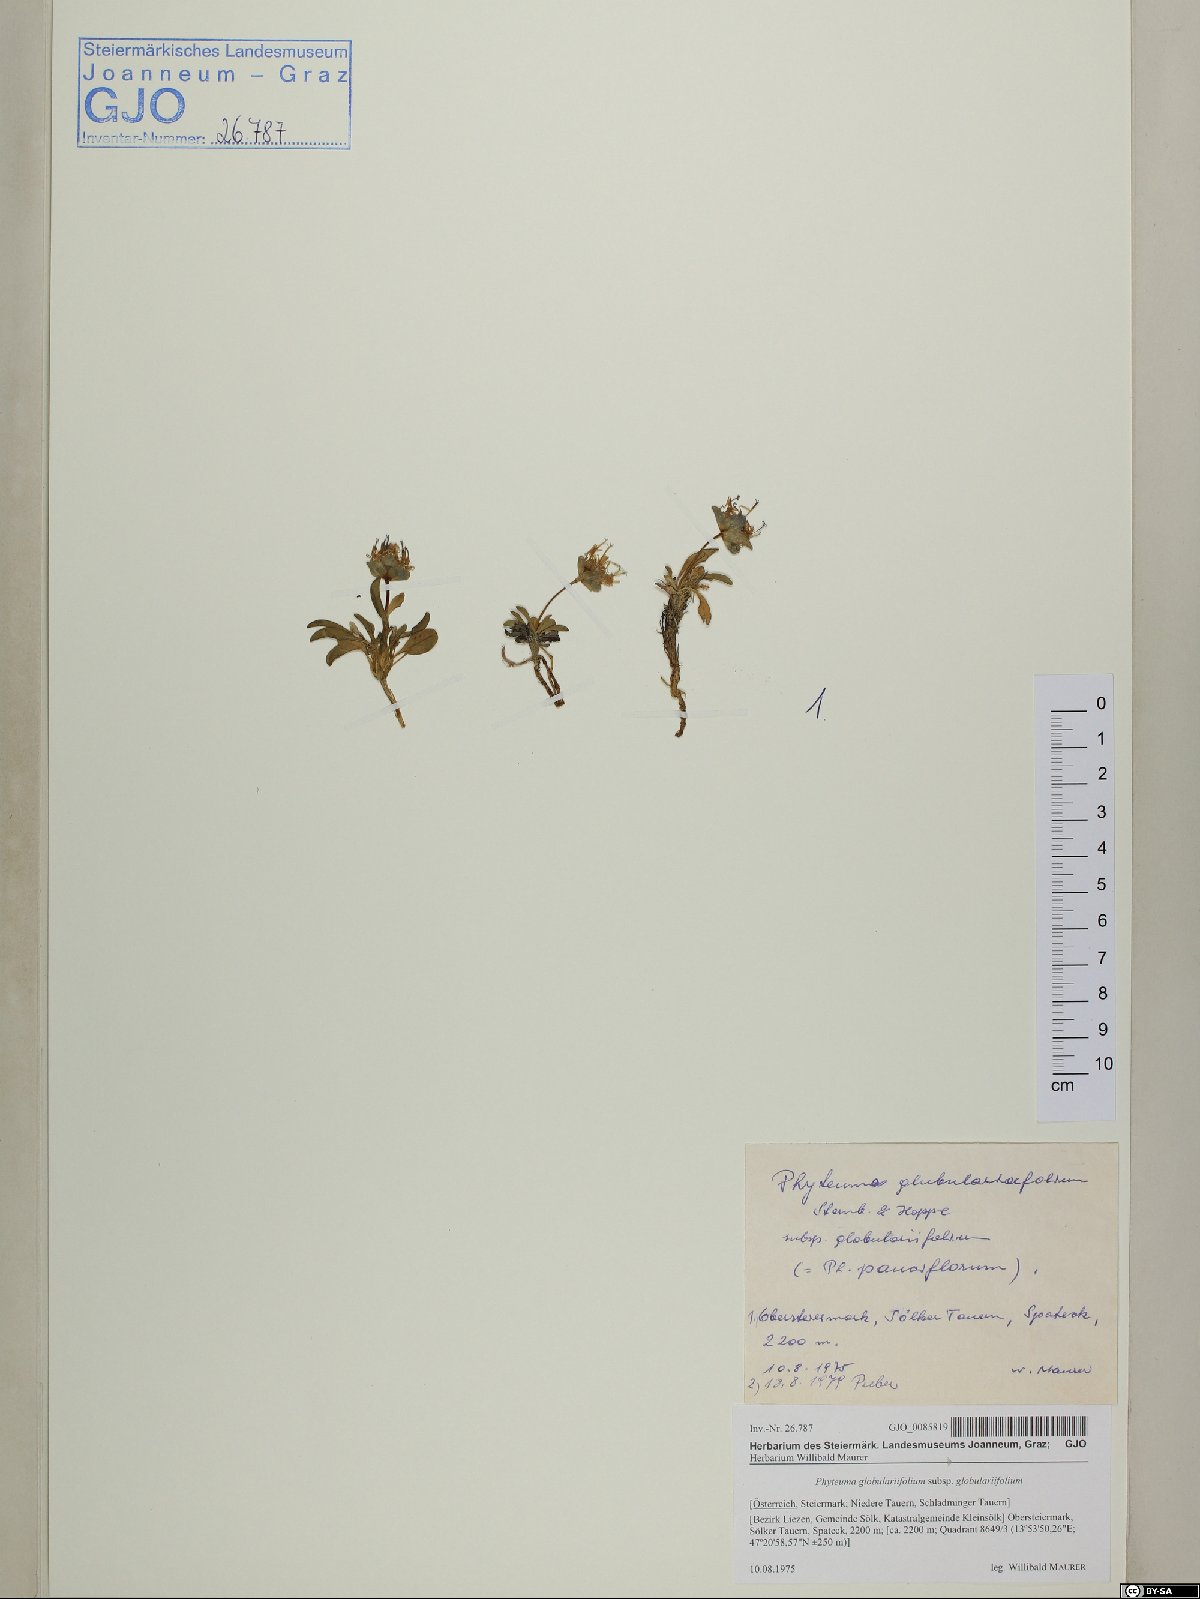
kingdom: Plantae
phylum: Tracheophyta
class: Magnoliopsida
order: Asterales
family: Campanulaceae
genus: Phyteuma
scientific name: Phyteuma globulariifolium
